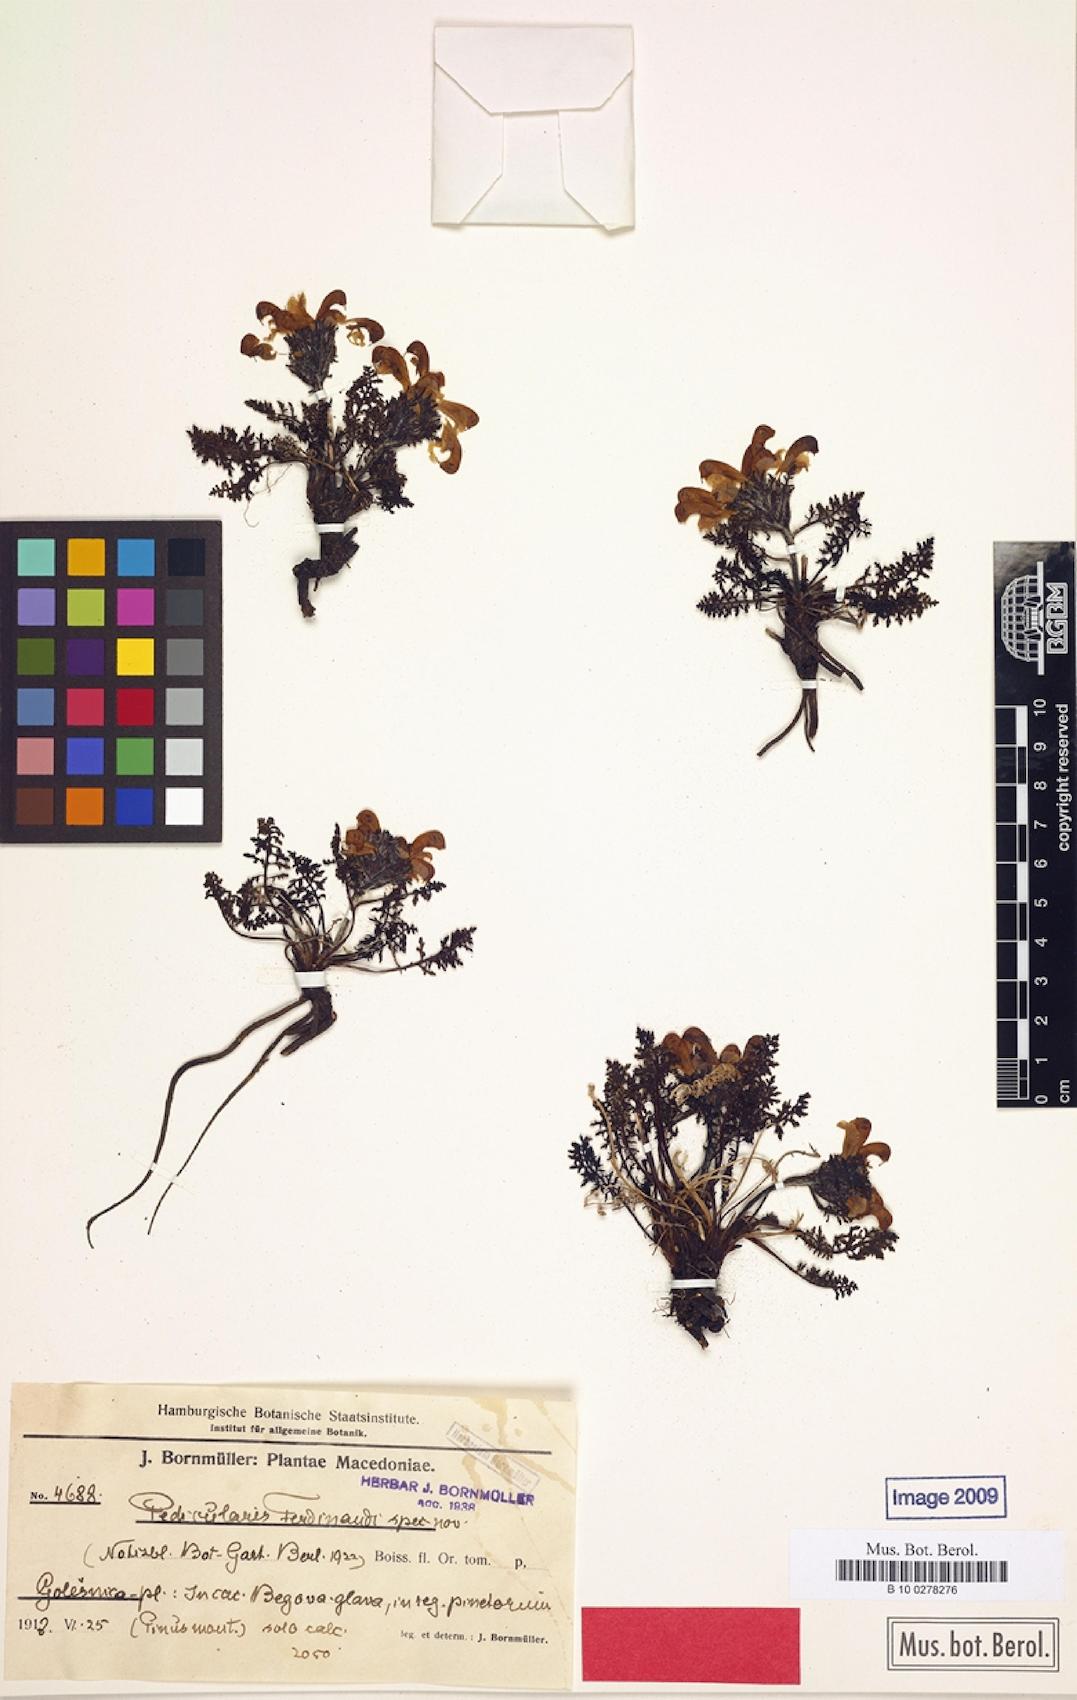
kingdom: Plantae
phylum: Tracheophyta
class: Magnoliopsida
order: Lamiales
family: Orobanchaceae
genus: Pedicularis
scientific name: Pedicularis ferdinandi
